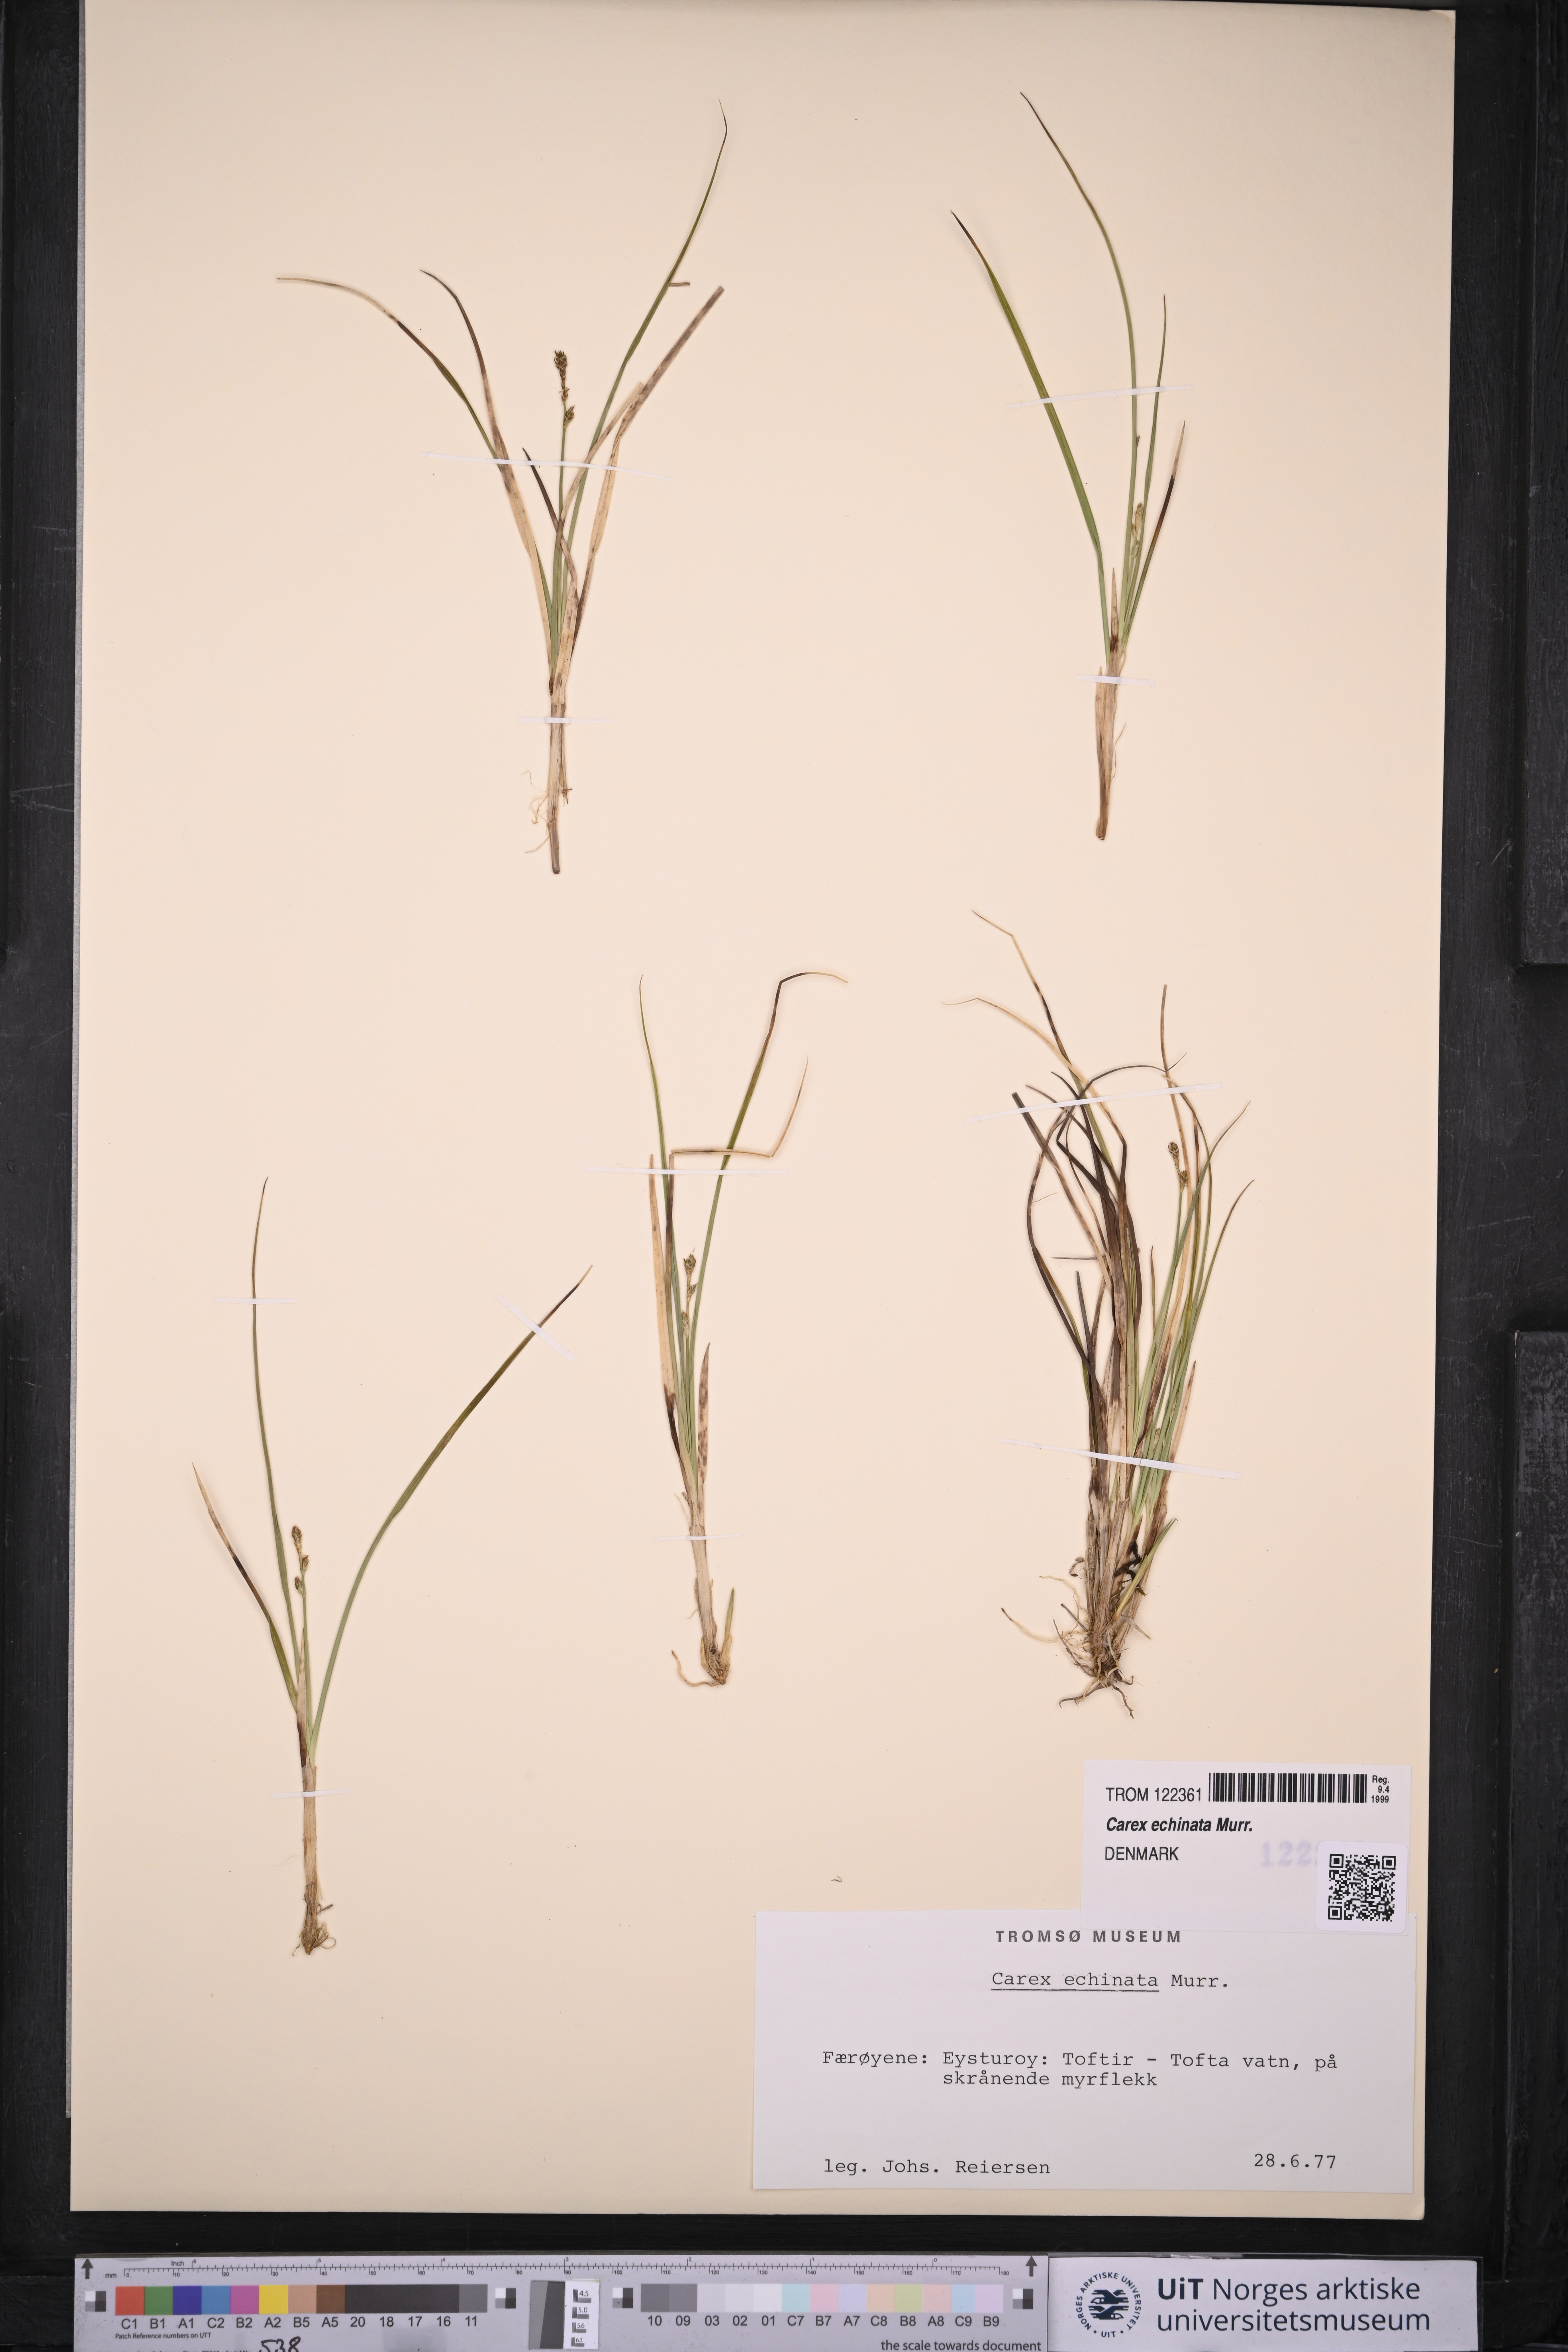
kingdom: Plantae
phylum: Tracheophyta
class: Liliopsida
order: Poales
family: Cyperaceae
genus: Carex
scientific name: Carex echinata
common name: Star sedge
